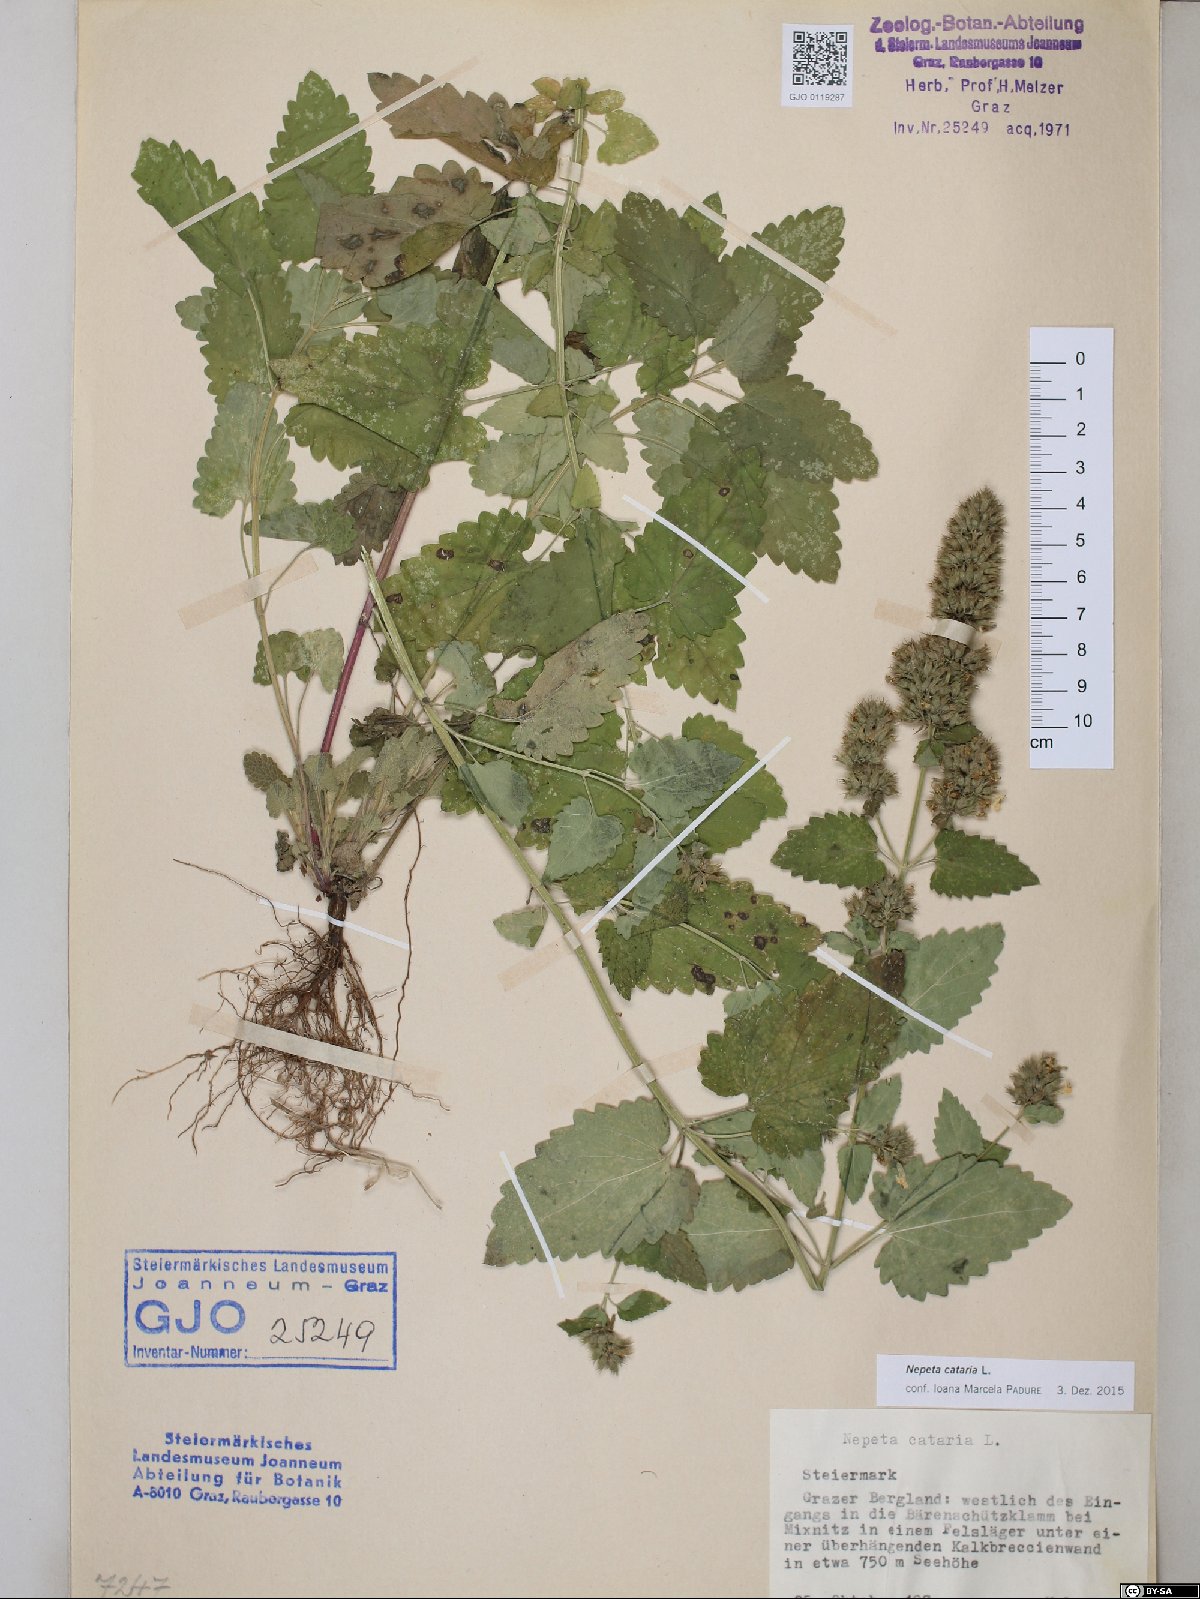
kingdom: Plantae
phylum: Tracheophyta
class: Magnoliopsida
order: Lamiales
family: Lamiaceae
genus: Nepeta
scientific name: Nepeta cataria
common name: Catnip
